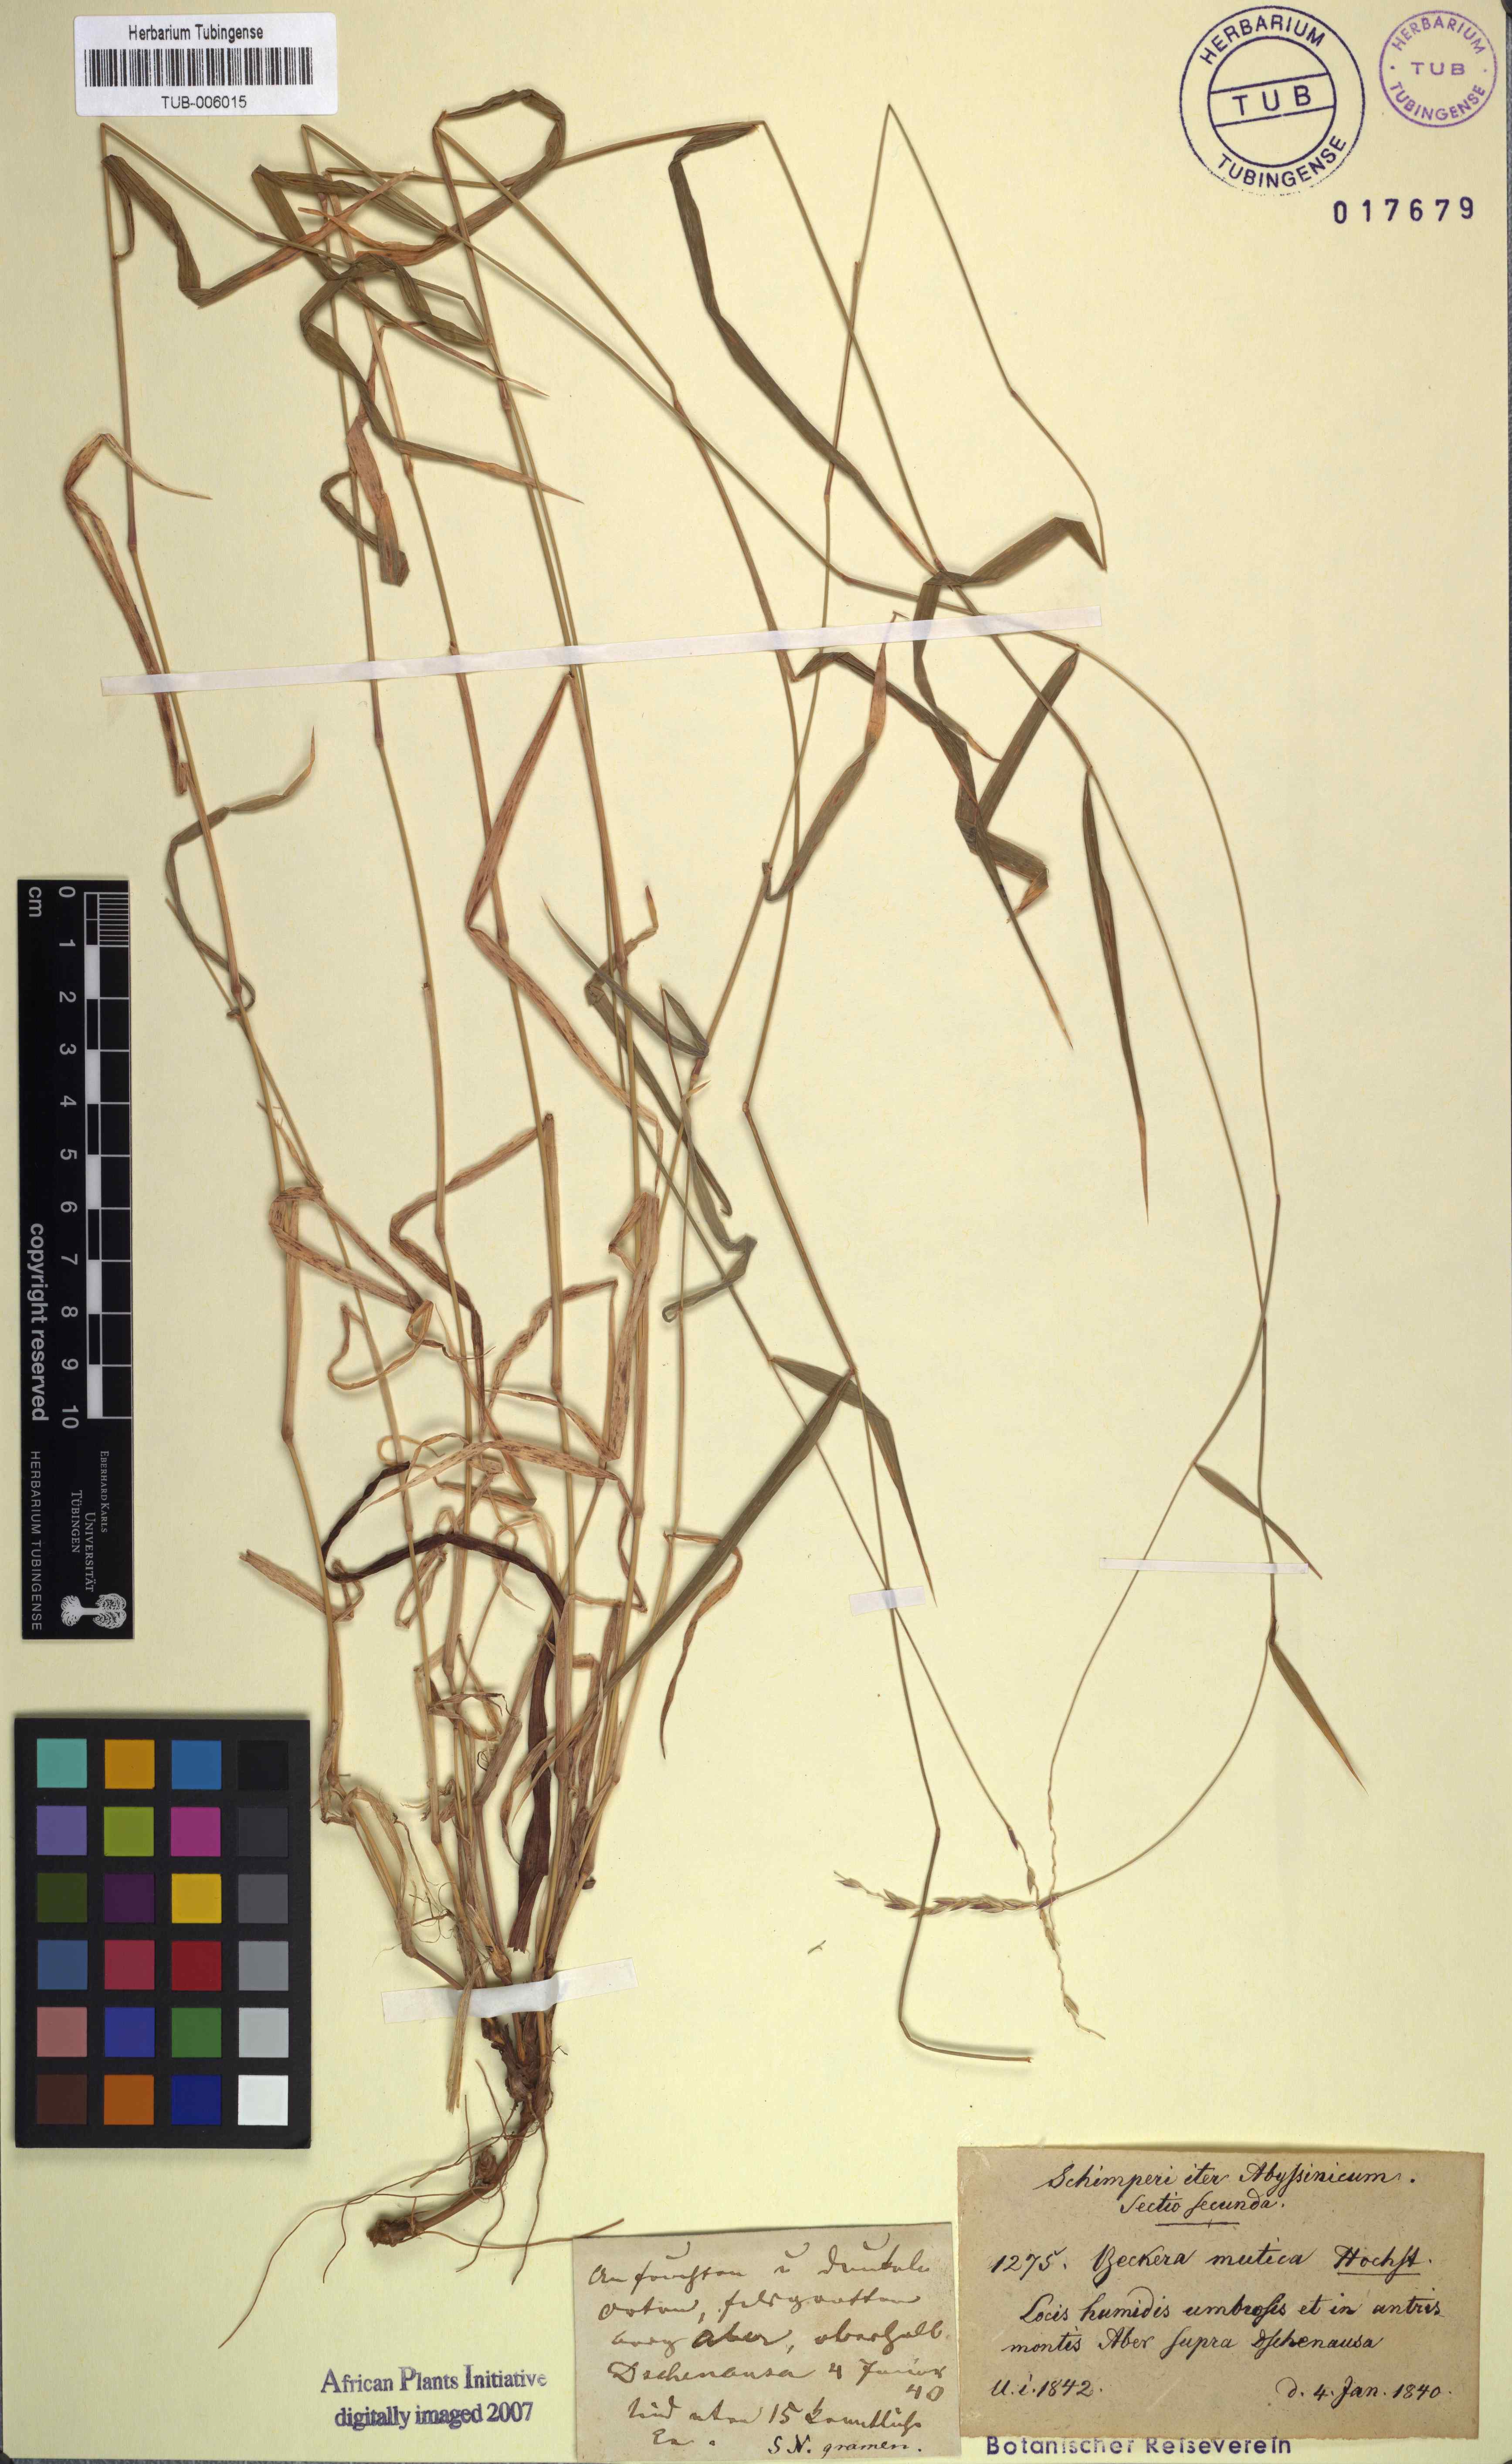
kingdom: Plantae
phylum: Tracheophyta
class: Liliopsida
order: Poales
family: Poaceae
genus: Snowdenia
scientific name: Snowdenia mutica
